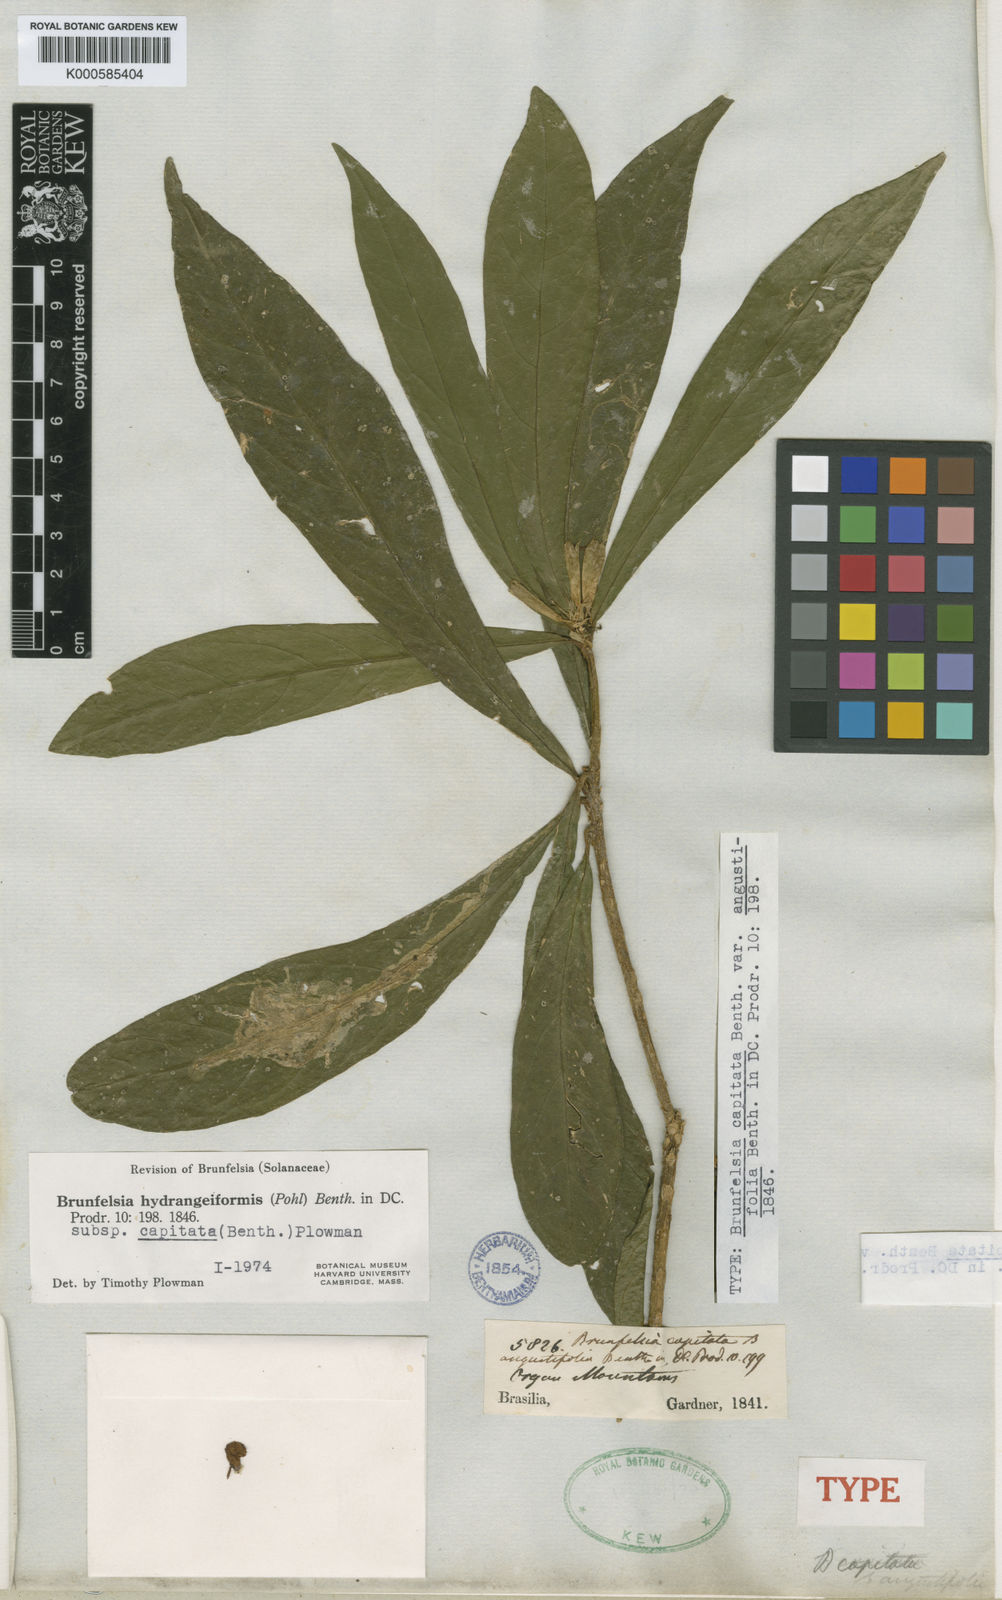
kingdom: Plantae
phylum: Tracheophyta
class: Magnoliopsida
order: Solanales
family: Solanaceae
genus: Brunfelsia
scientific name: Brunfelsia hydrangeiformis
